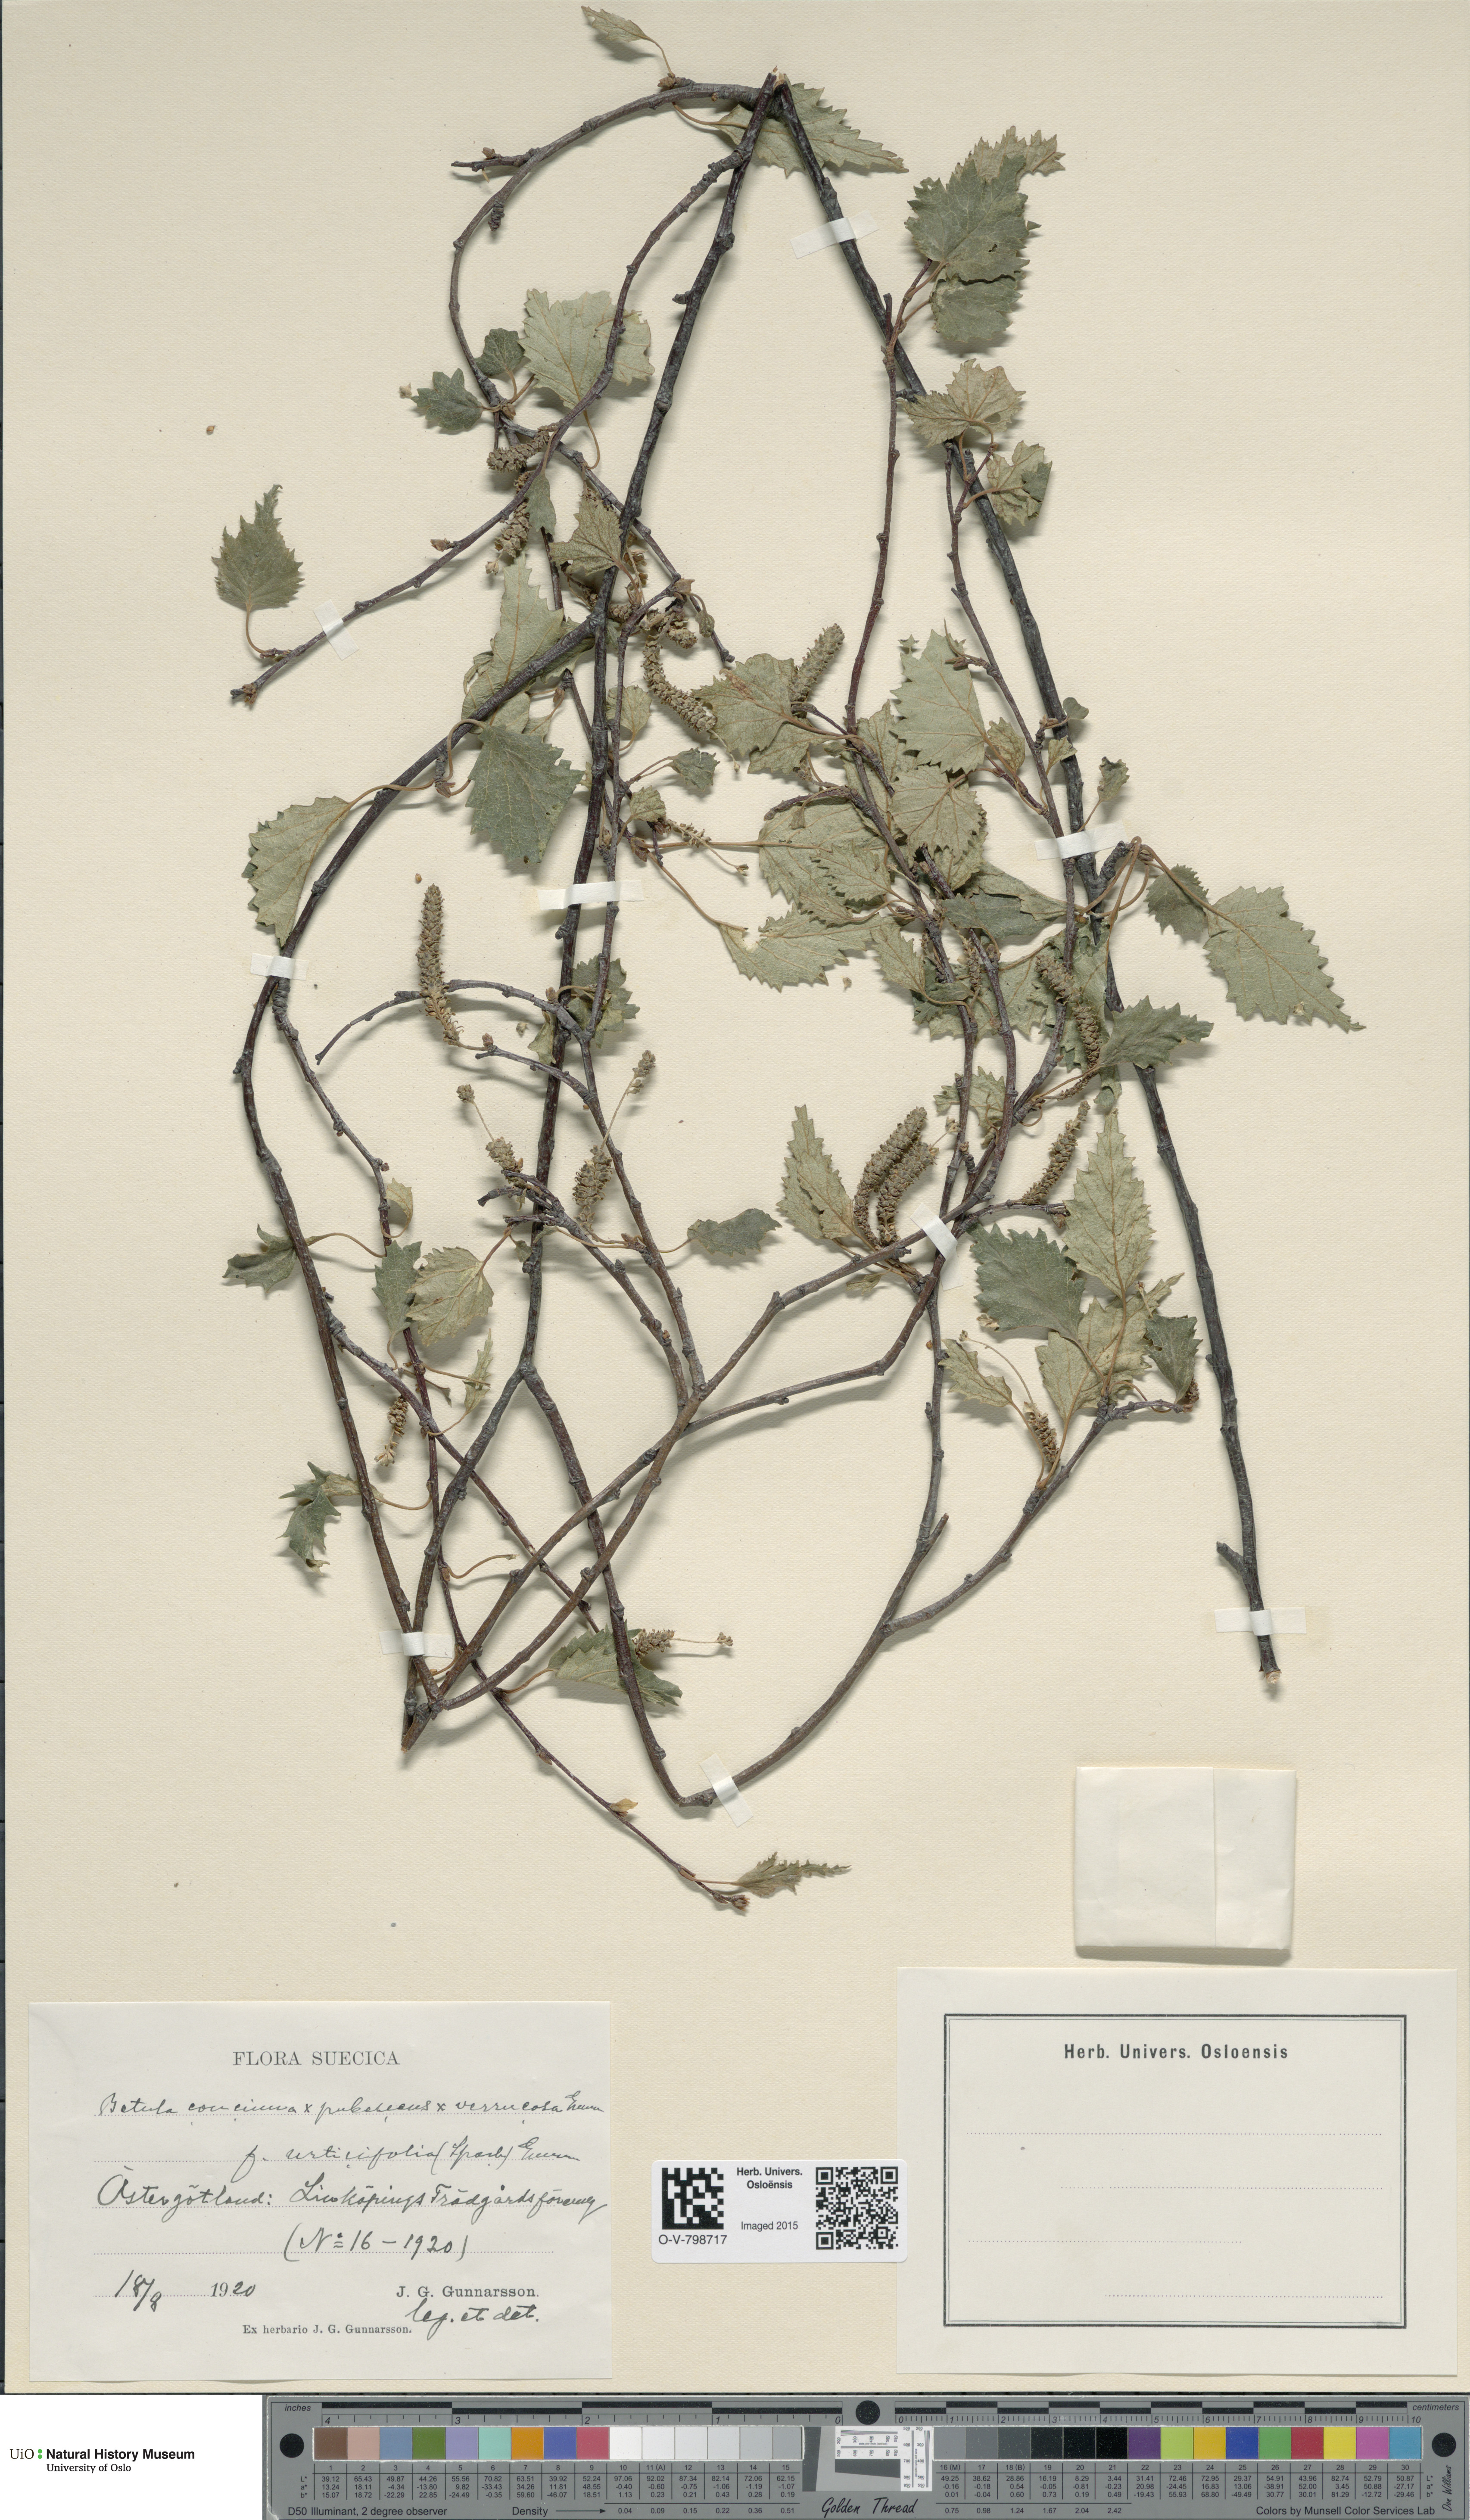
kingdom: Plantae
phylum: Tracheophyta
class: Magnoliopsida
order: Fagales
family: Betulaceae
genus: Betula
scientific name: Betula pubescens
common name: Downy birch
